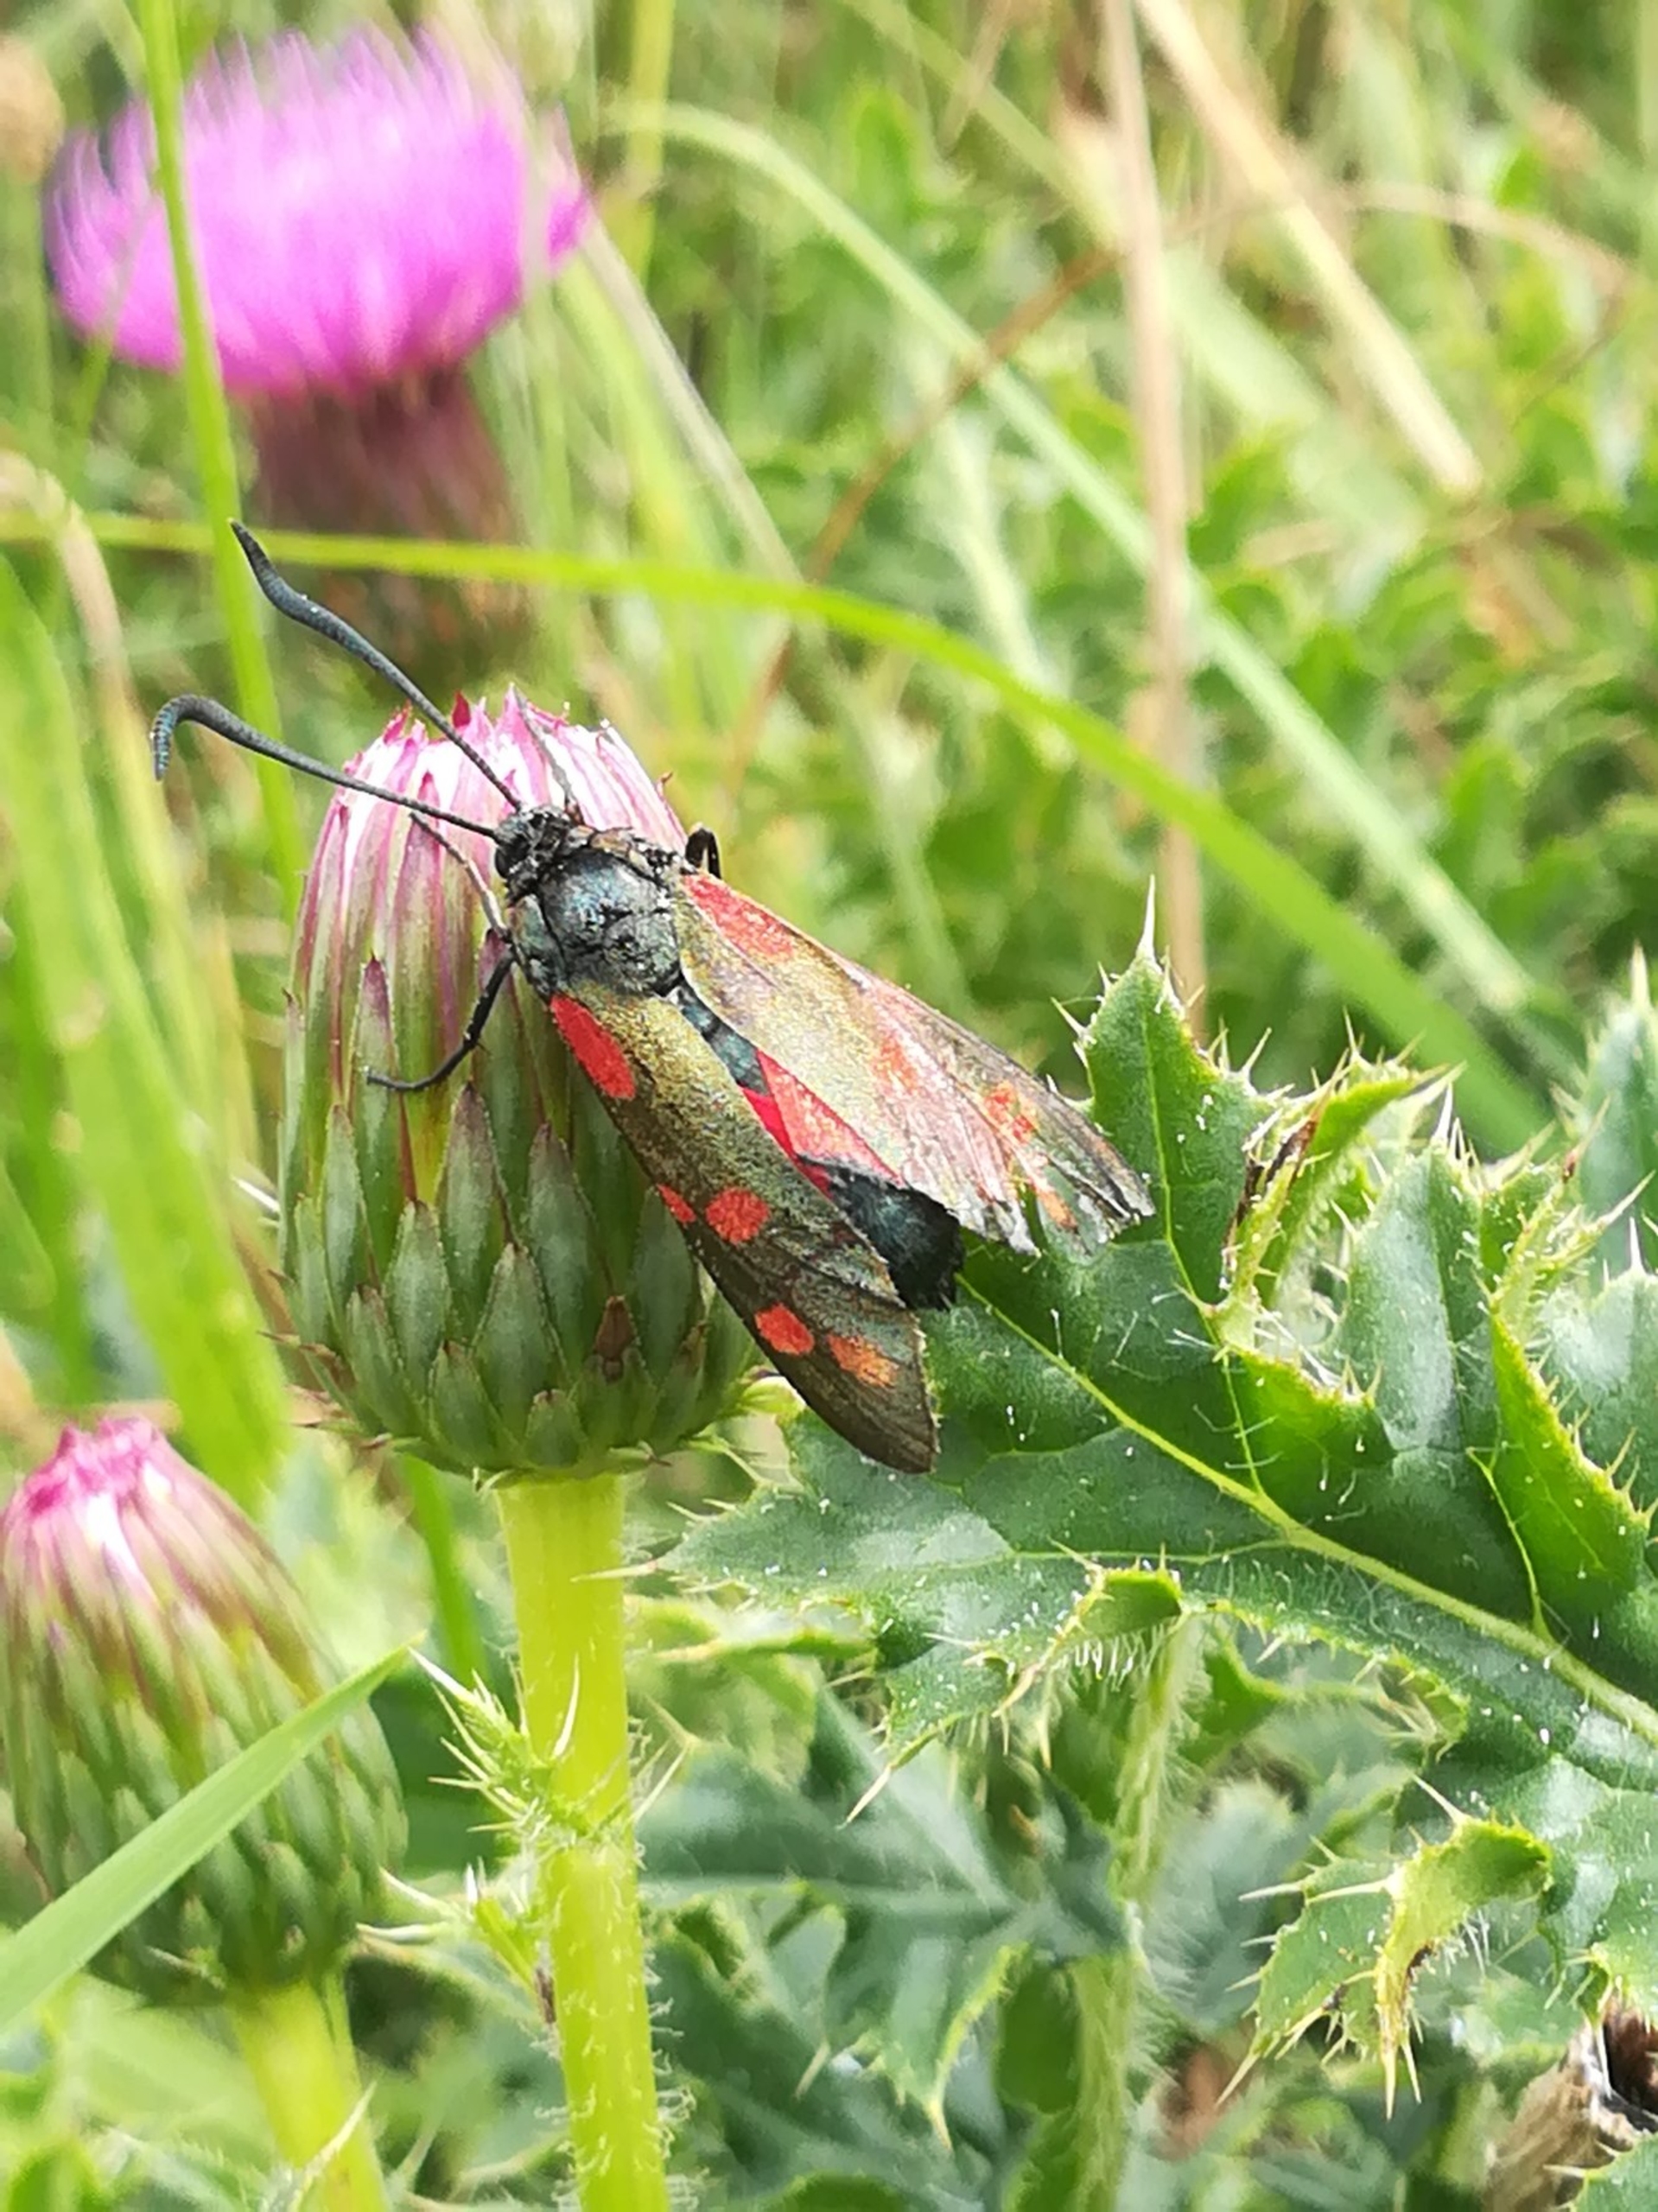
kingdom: Animalia
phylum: Arthropoda
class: Insecta
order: Lepidoptera
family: Zygaenidae
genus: Zygaena
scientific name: Zygaena filipendulae
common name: Seksplettet køllesværmer
